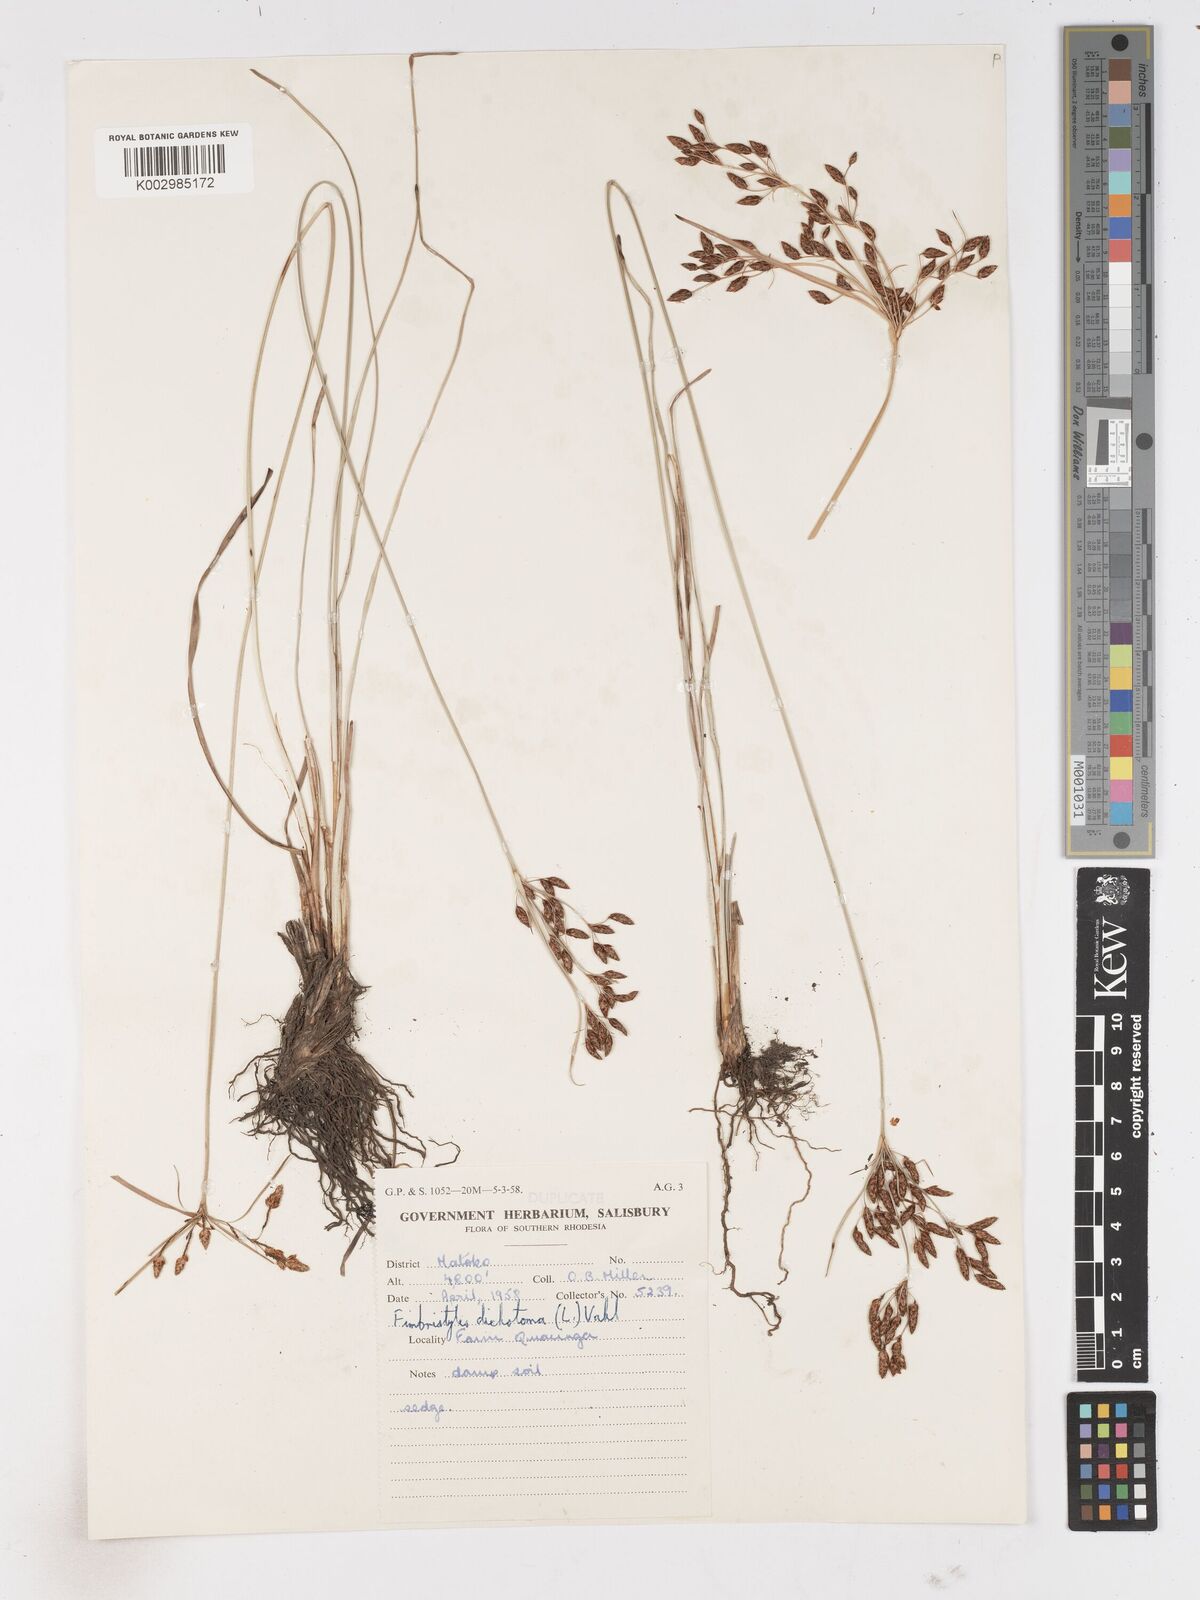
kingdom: Plantae
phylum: Tracheophyta
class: Liliopsida
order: Poales
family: Cyperaceae
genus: Fimbristylis
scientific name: Fimbristylis dichotoma
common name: Forked fimbry
